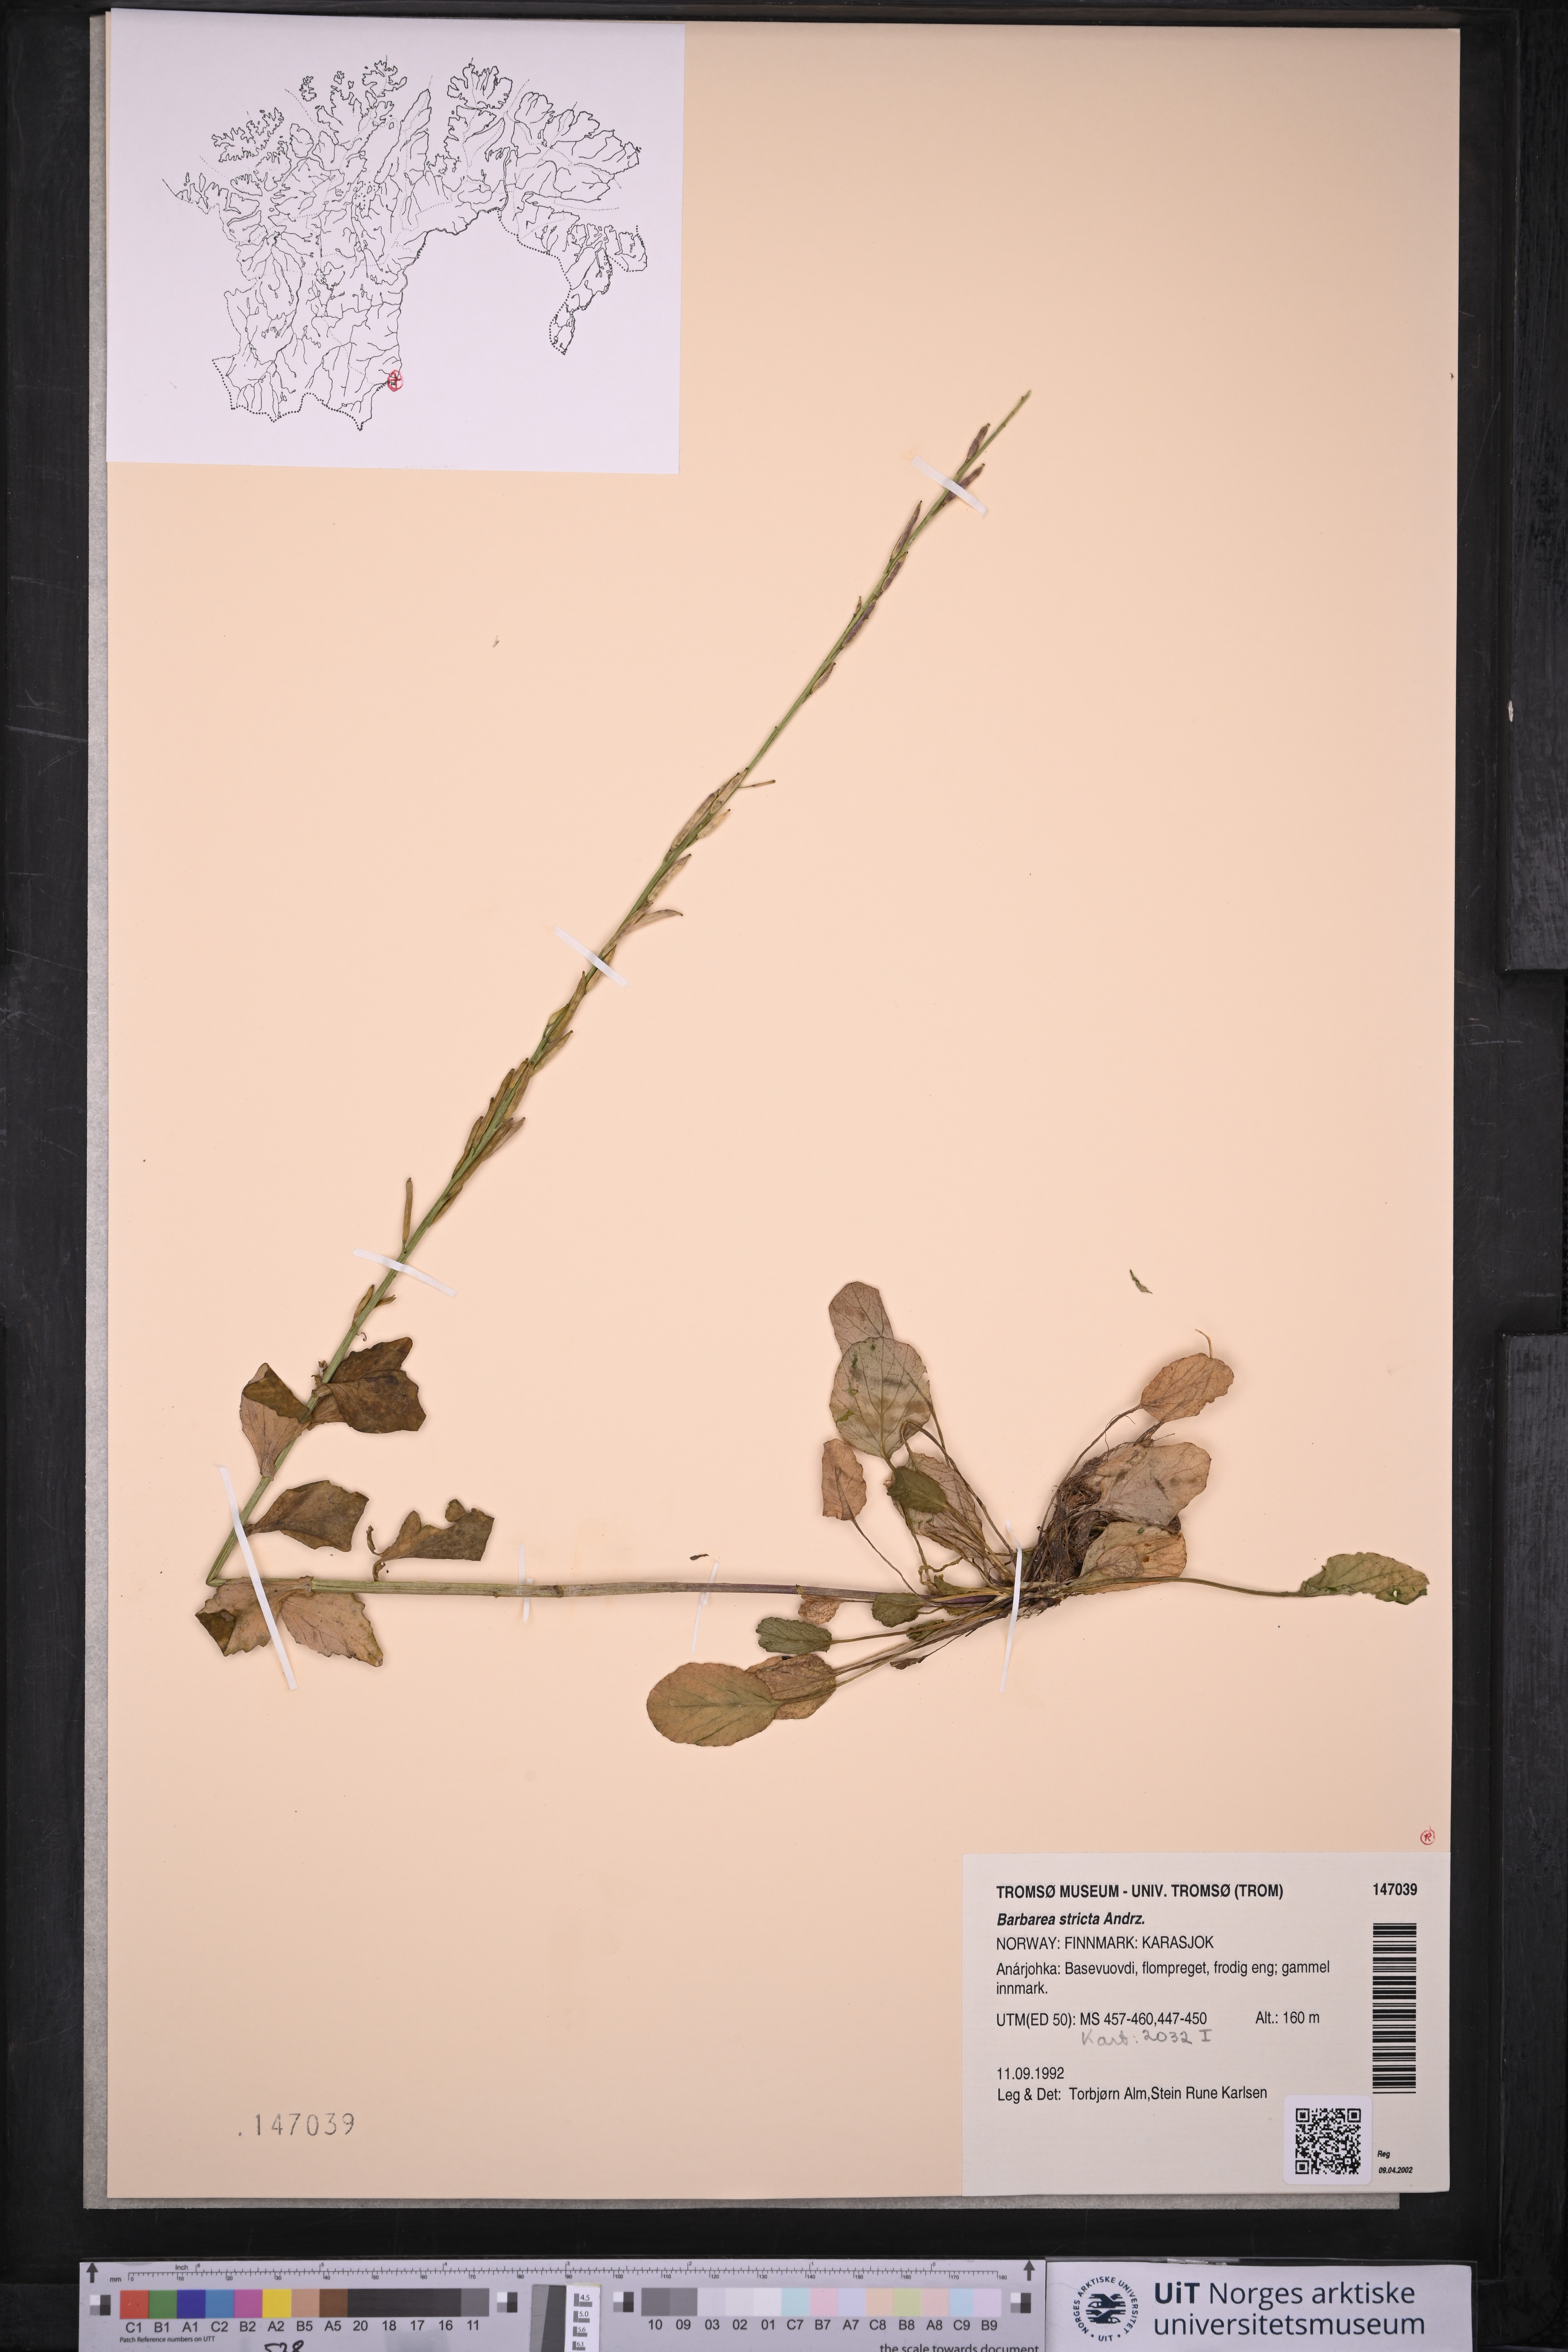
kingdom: Plantae
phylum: Tracheophyta
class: Magnoliopsida
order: Brassicales
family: Brassicaceae
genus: Barbarea
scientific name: Barbarea stricta
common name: Small-flowered winter-cress
